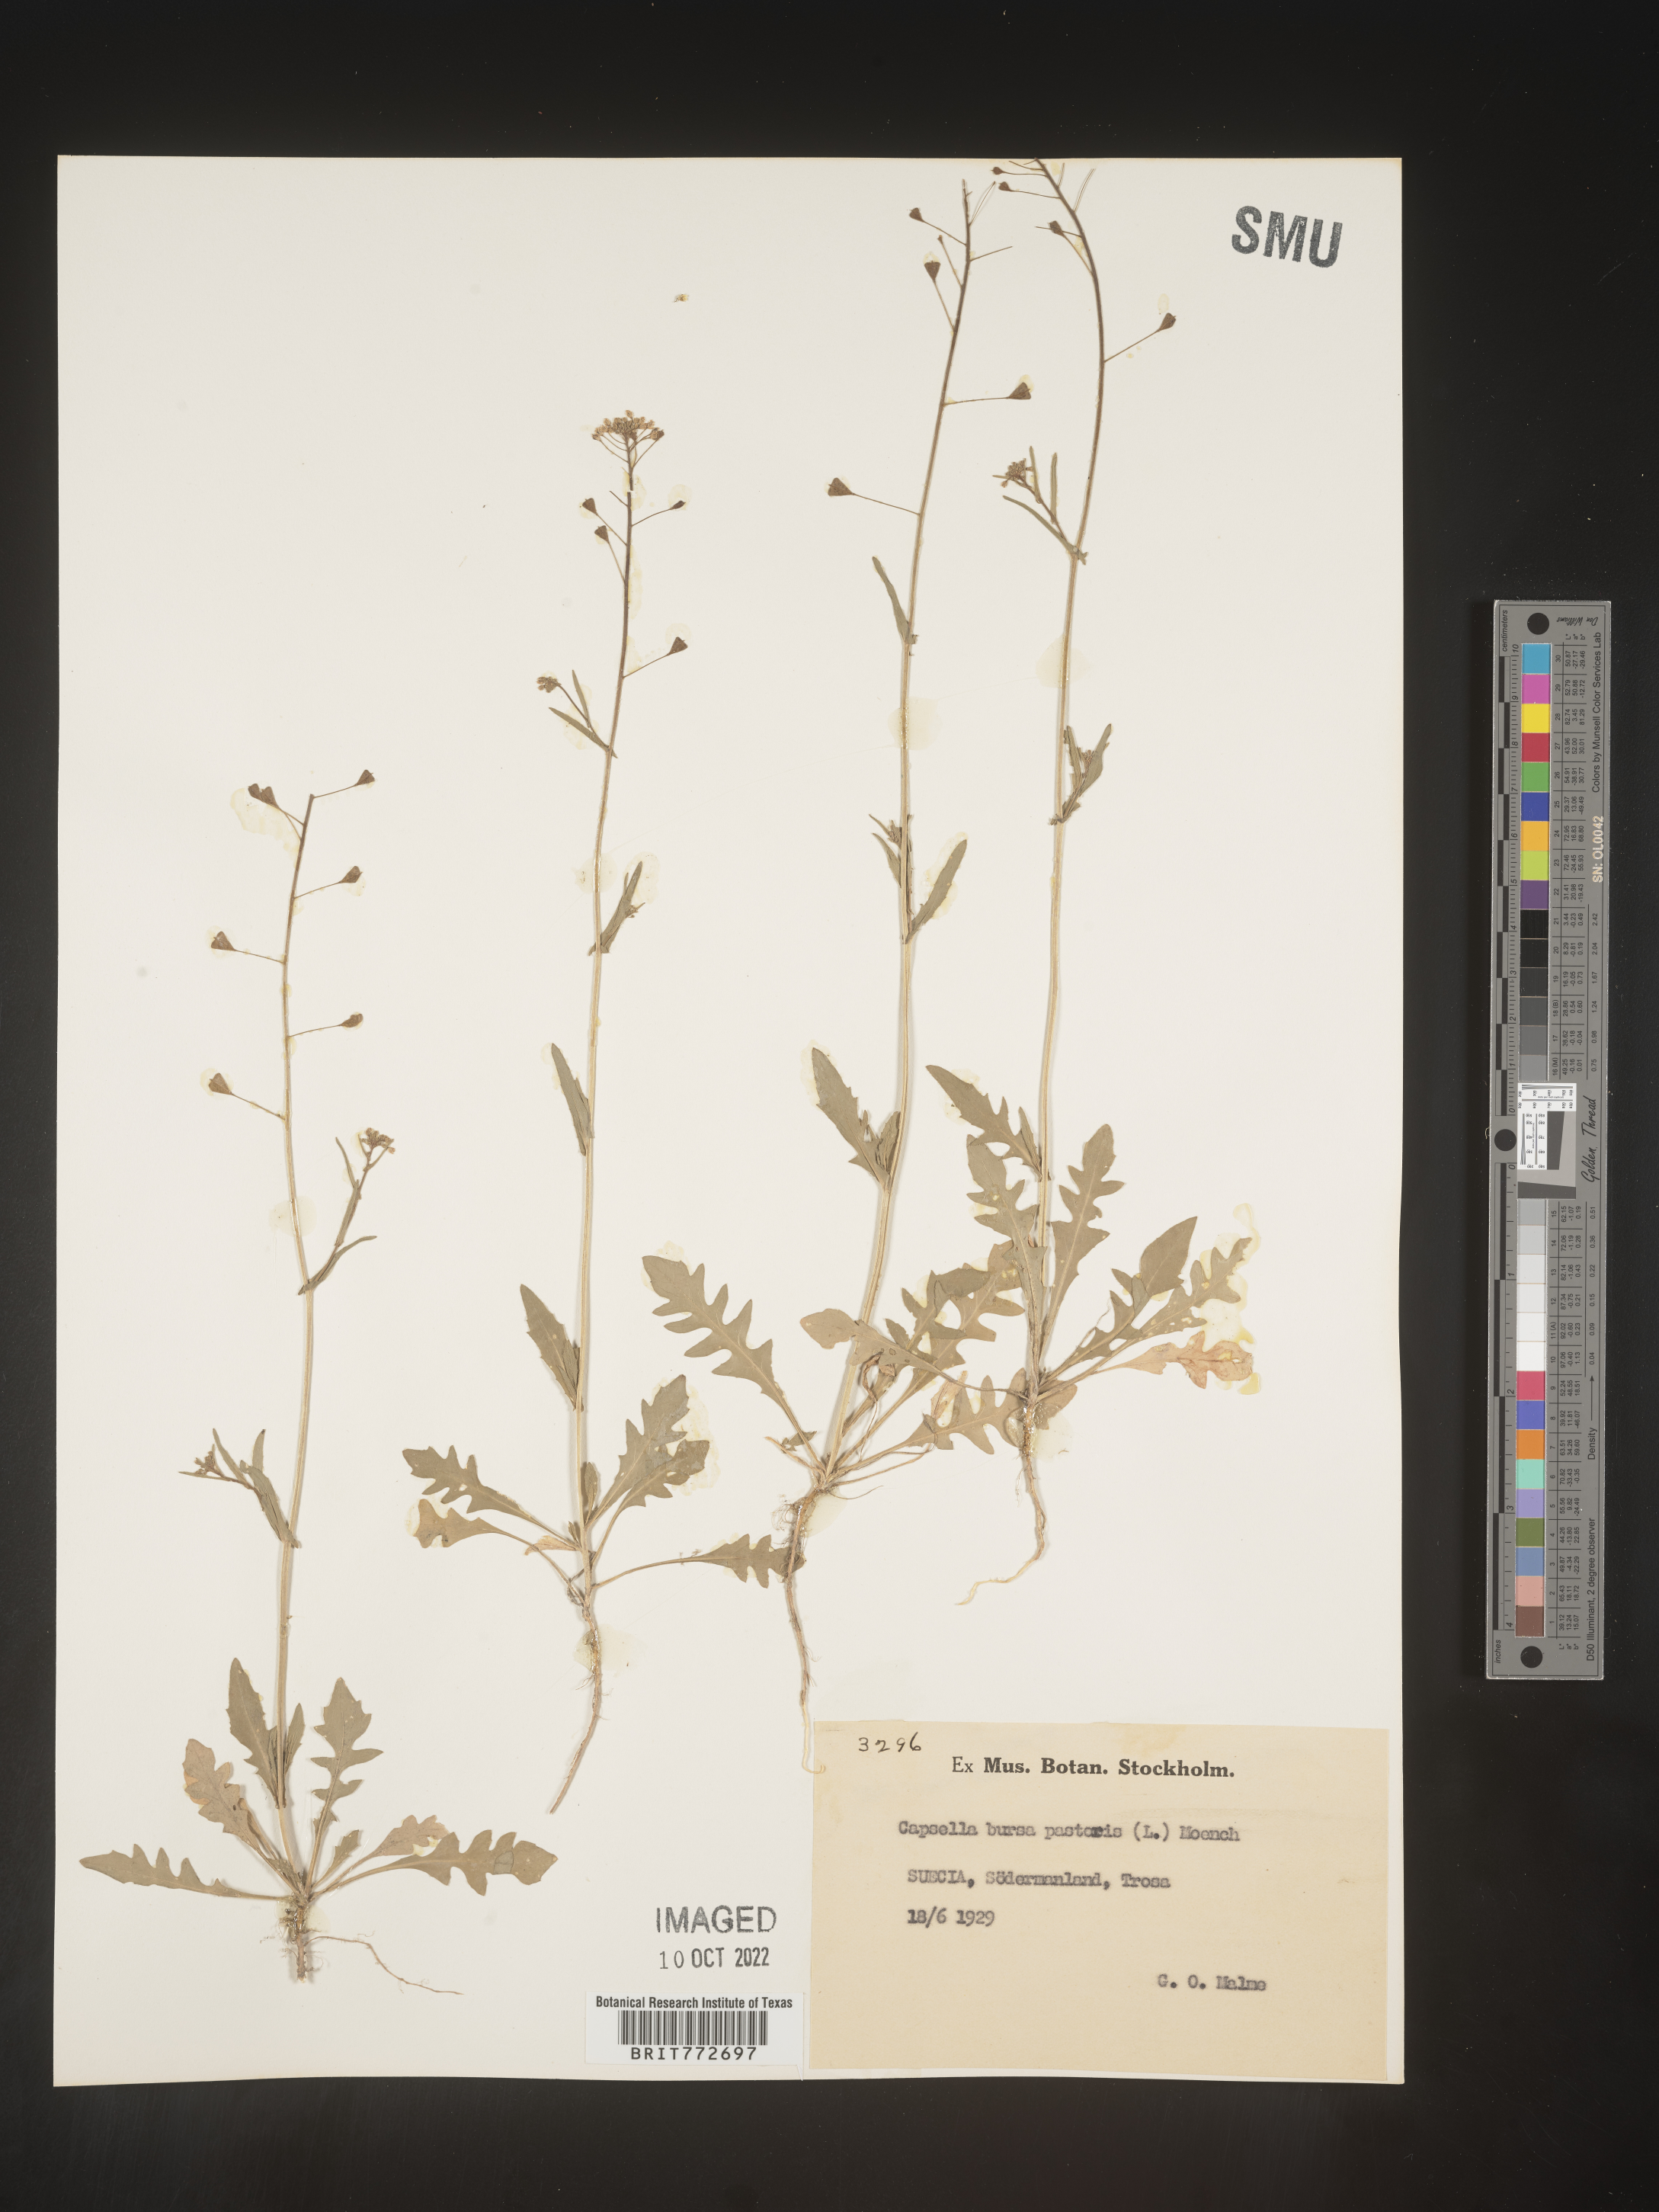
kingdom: Plantae
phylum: Tracheophyta
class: Magnoliopsida
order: Brassicales
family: Brassicaceae
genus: Capsella
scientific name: Capsella
